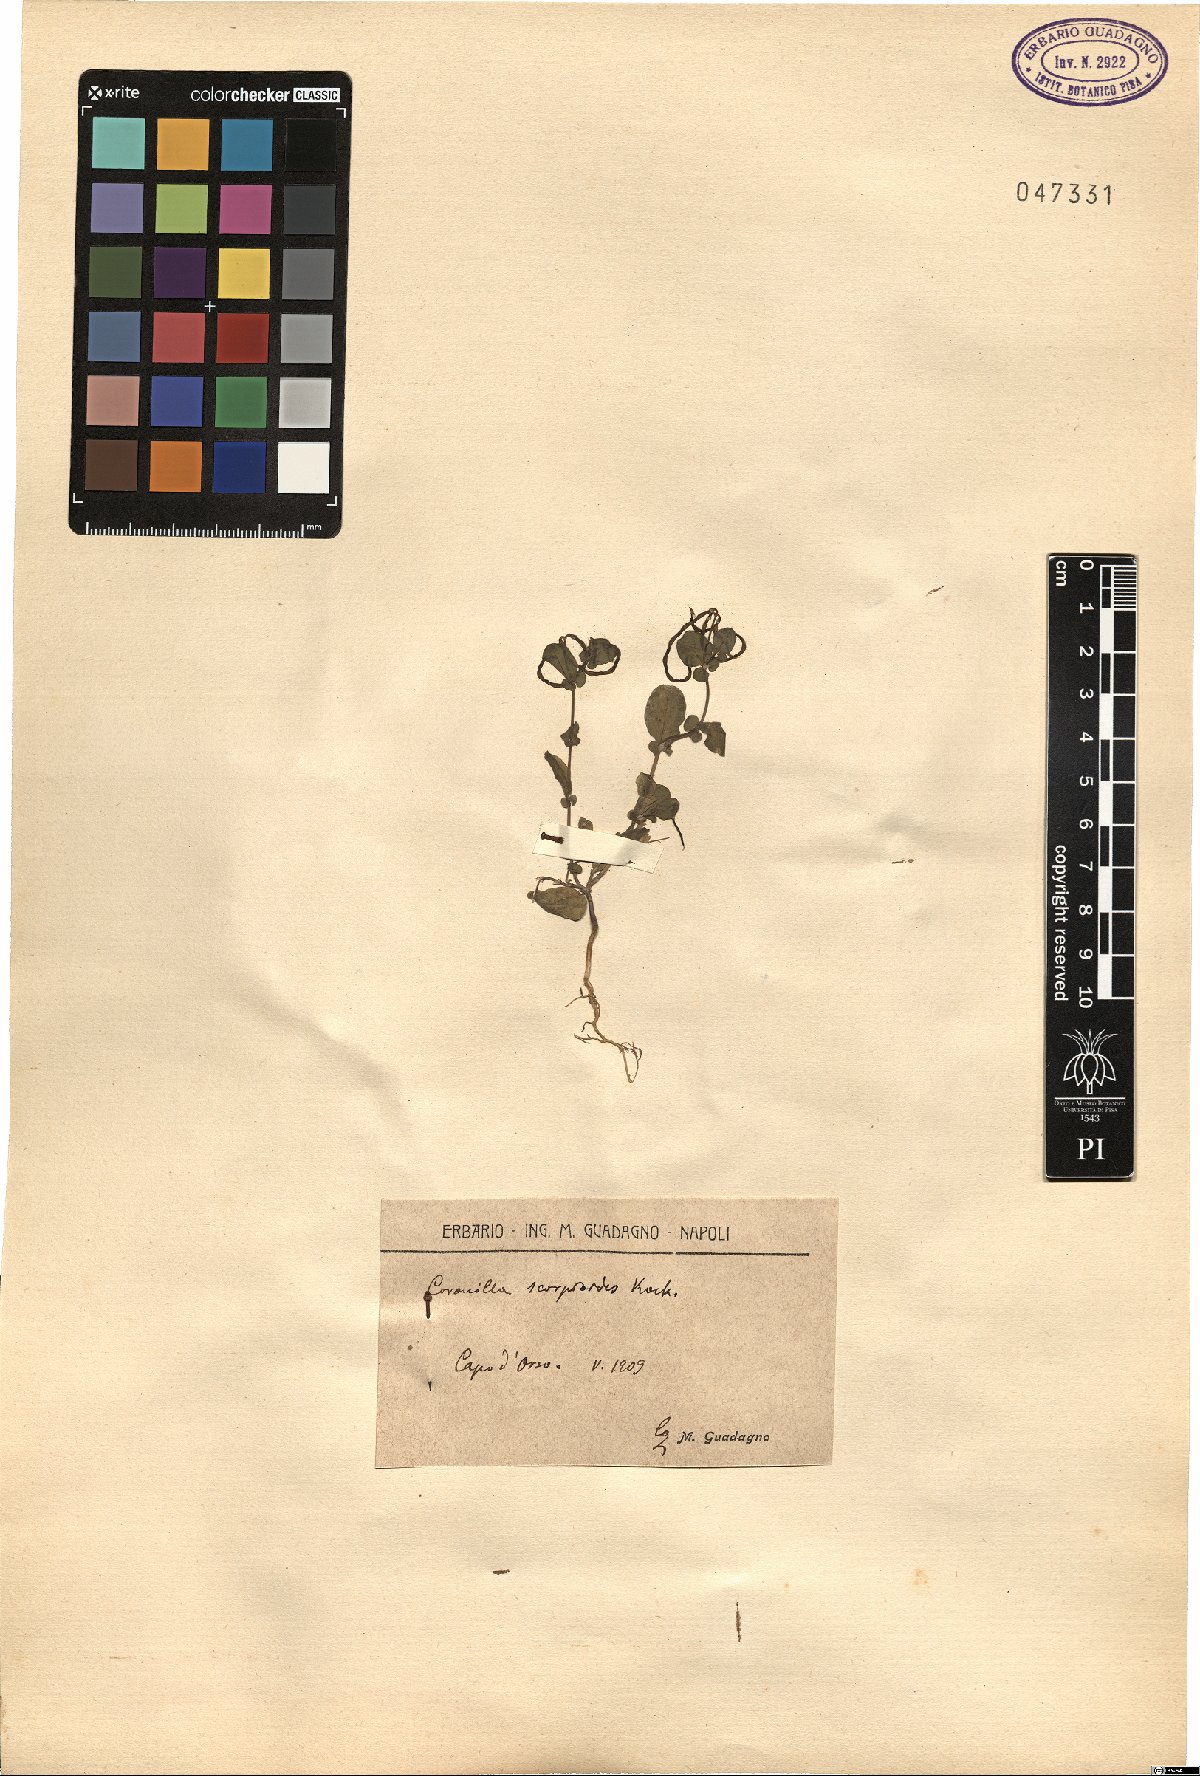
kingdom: Plantae
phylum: Tracheophyta
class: Magnoliopsida
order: Fabales
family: Fabaceae
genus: Coronilla
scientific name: Coronilla scorpioides
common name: Annual scorpion-vetch
